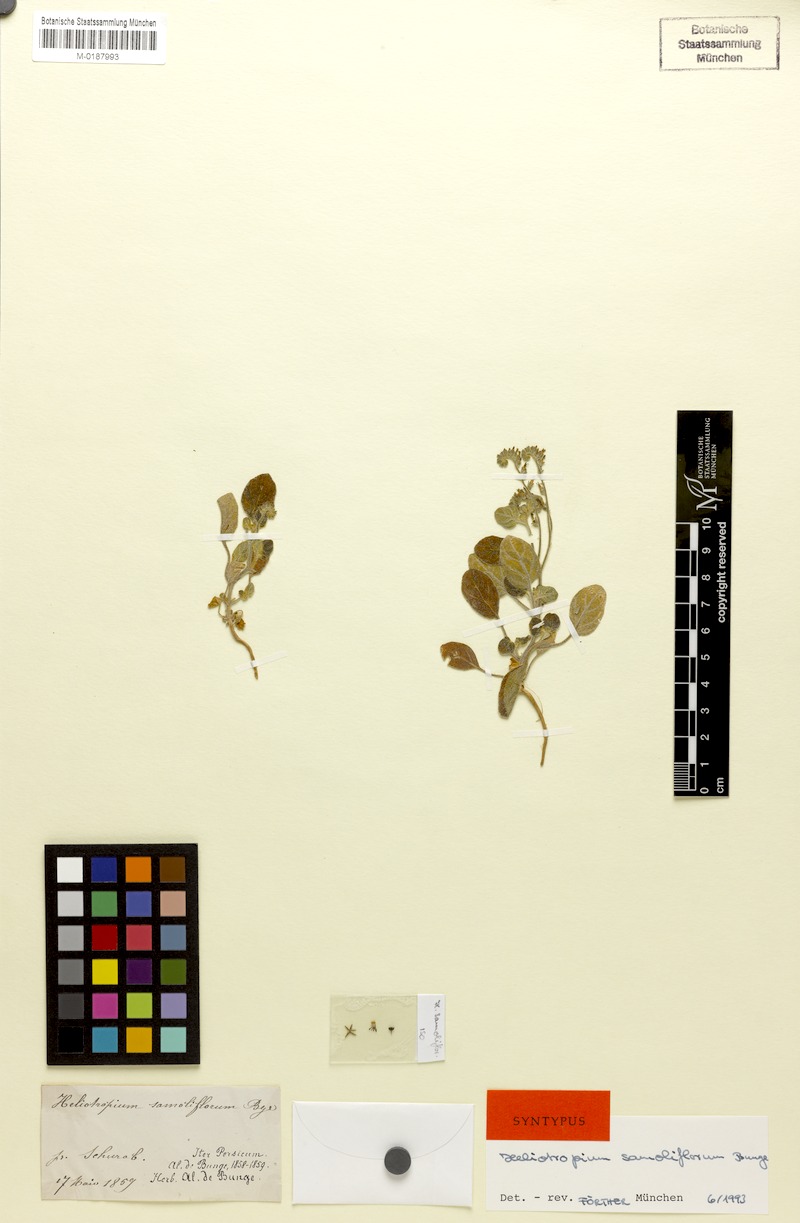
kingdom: Plantae
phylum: Tracheophyta
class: Magnoliopsida
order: Boraginales
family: Heliotropiaceae
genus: Heliotropium
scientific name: Heliotropium samoliflorum
